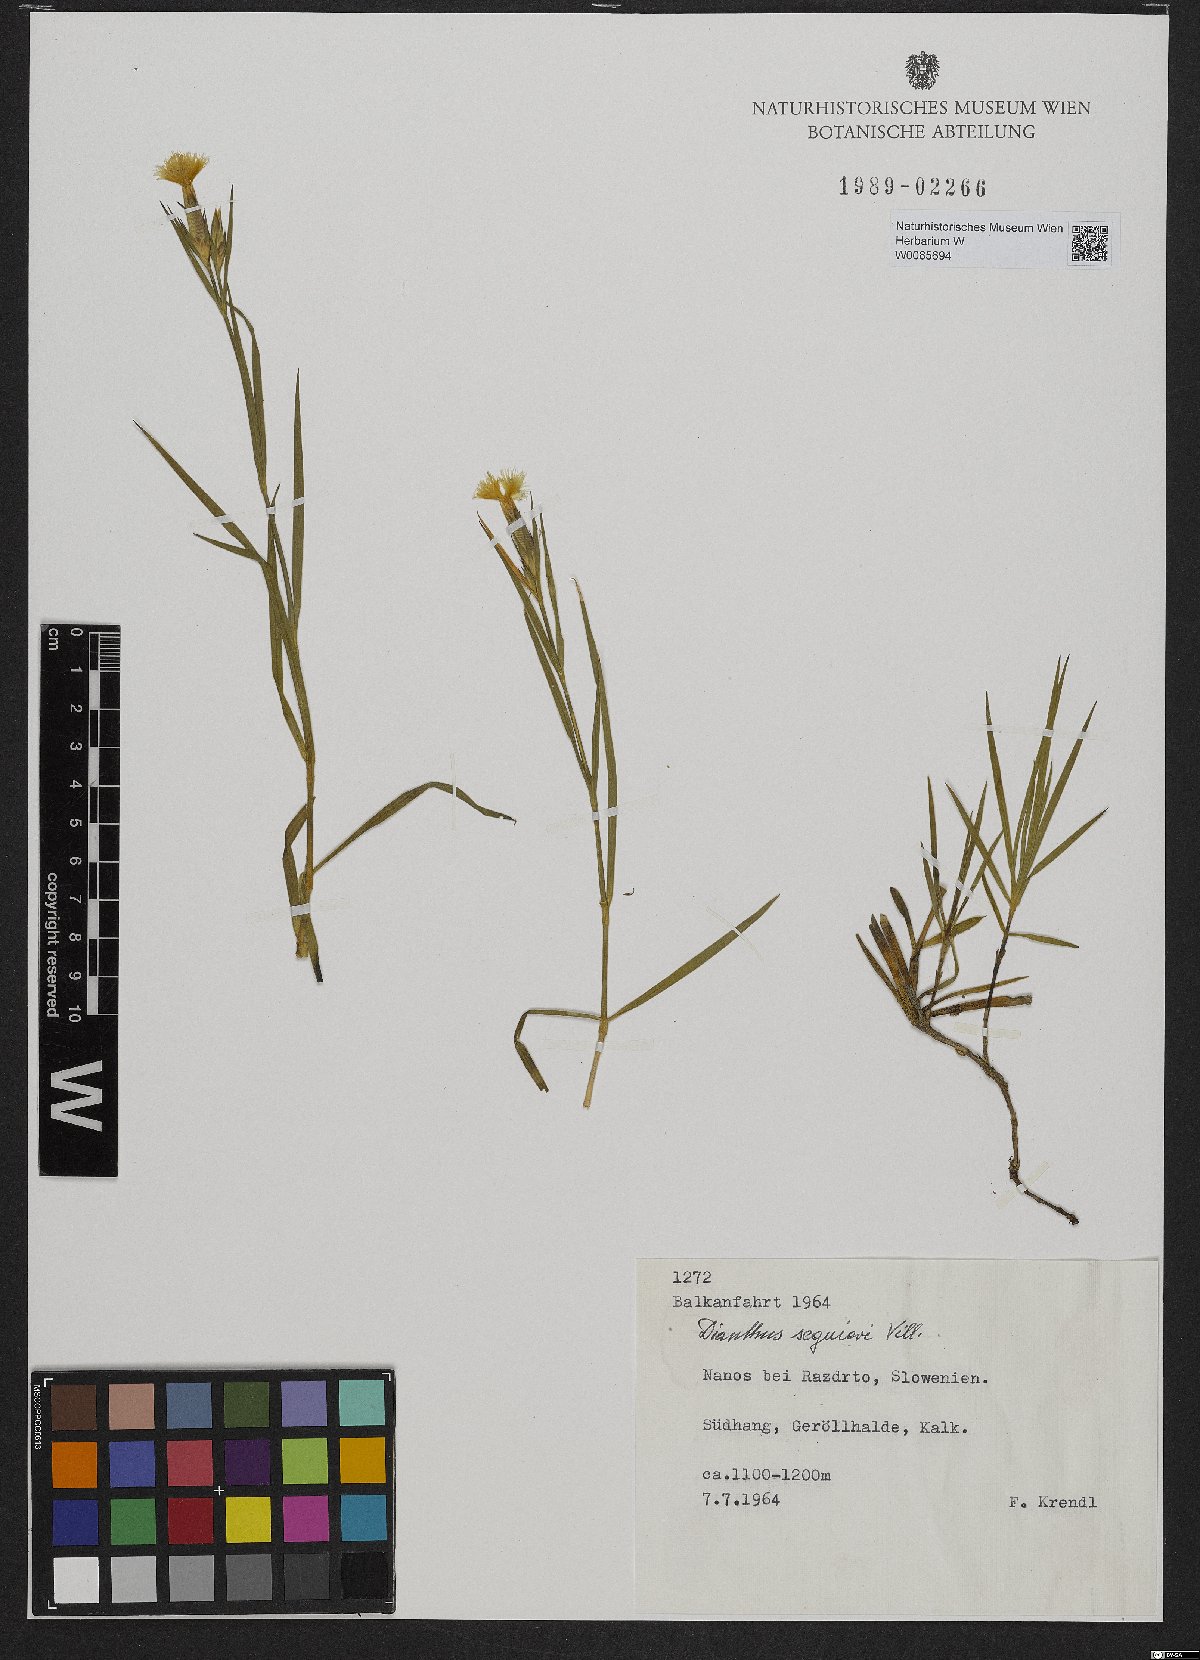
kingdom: Plantae
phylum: Tracheophyta
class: Magnoliopsida
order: Caryophyllales
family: Caryophyllaceae
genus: Dianthus
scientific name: Dianthus seguieri
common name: Ragged pink
